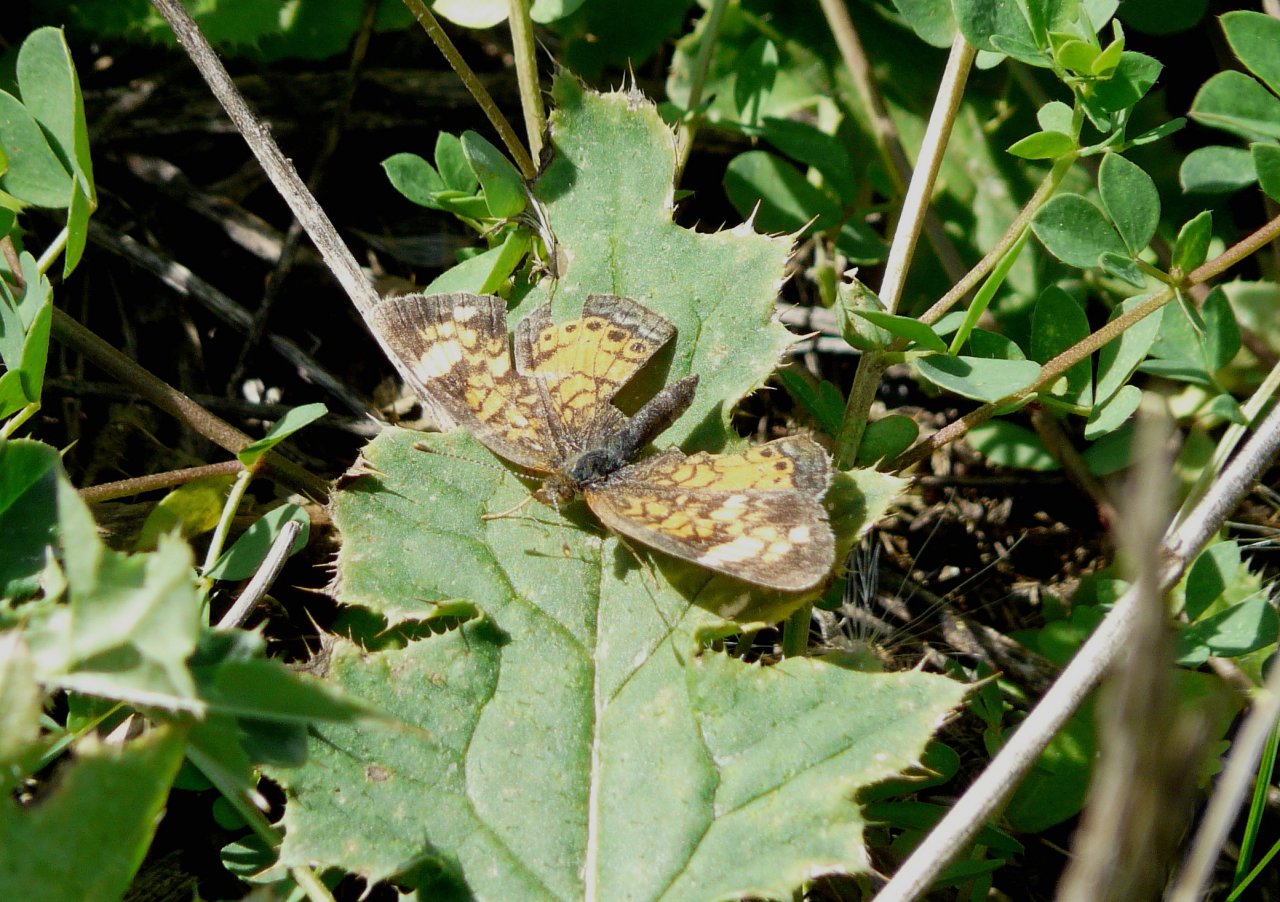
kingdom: Animalia
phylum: Arthropoda
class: Insecta
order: Lepidoptera
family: Nymphalidae
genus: Phyciodes
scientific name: Phyciodes
